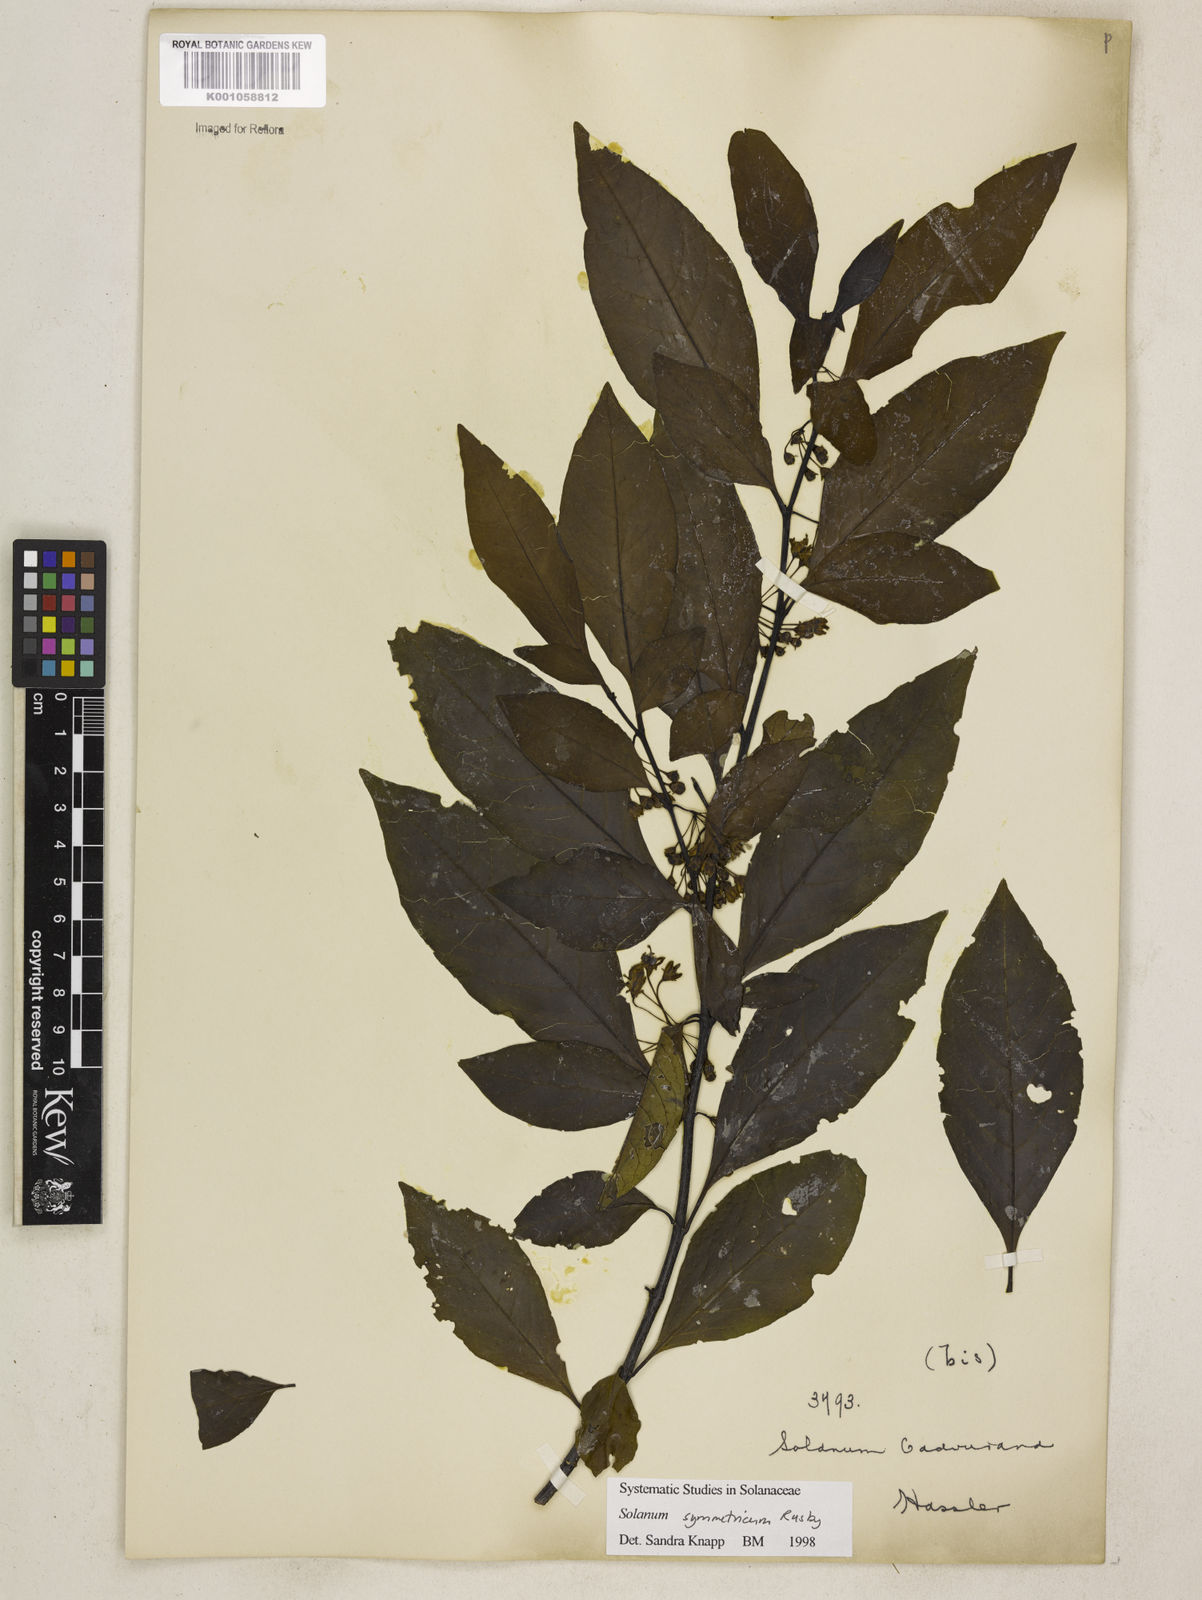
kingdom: Plantae
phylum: Tracheophyta
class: Magnoliopsida
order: Solanales
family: Solanaceae
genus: Solanum
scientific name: Solanum symmetricum
